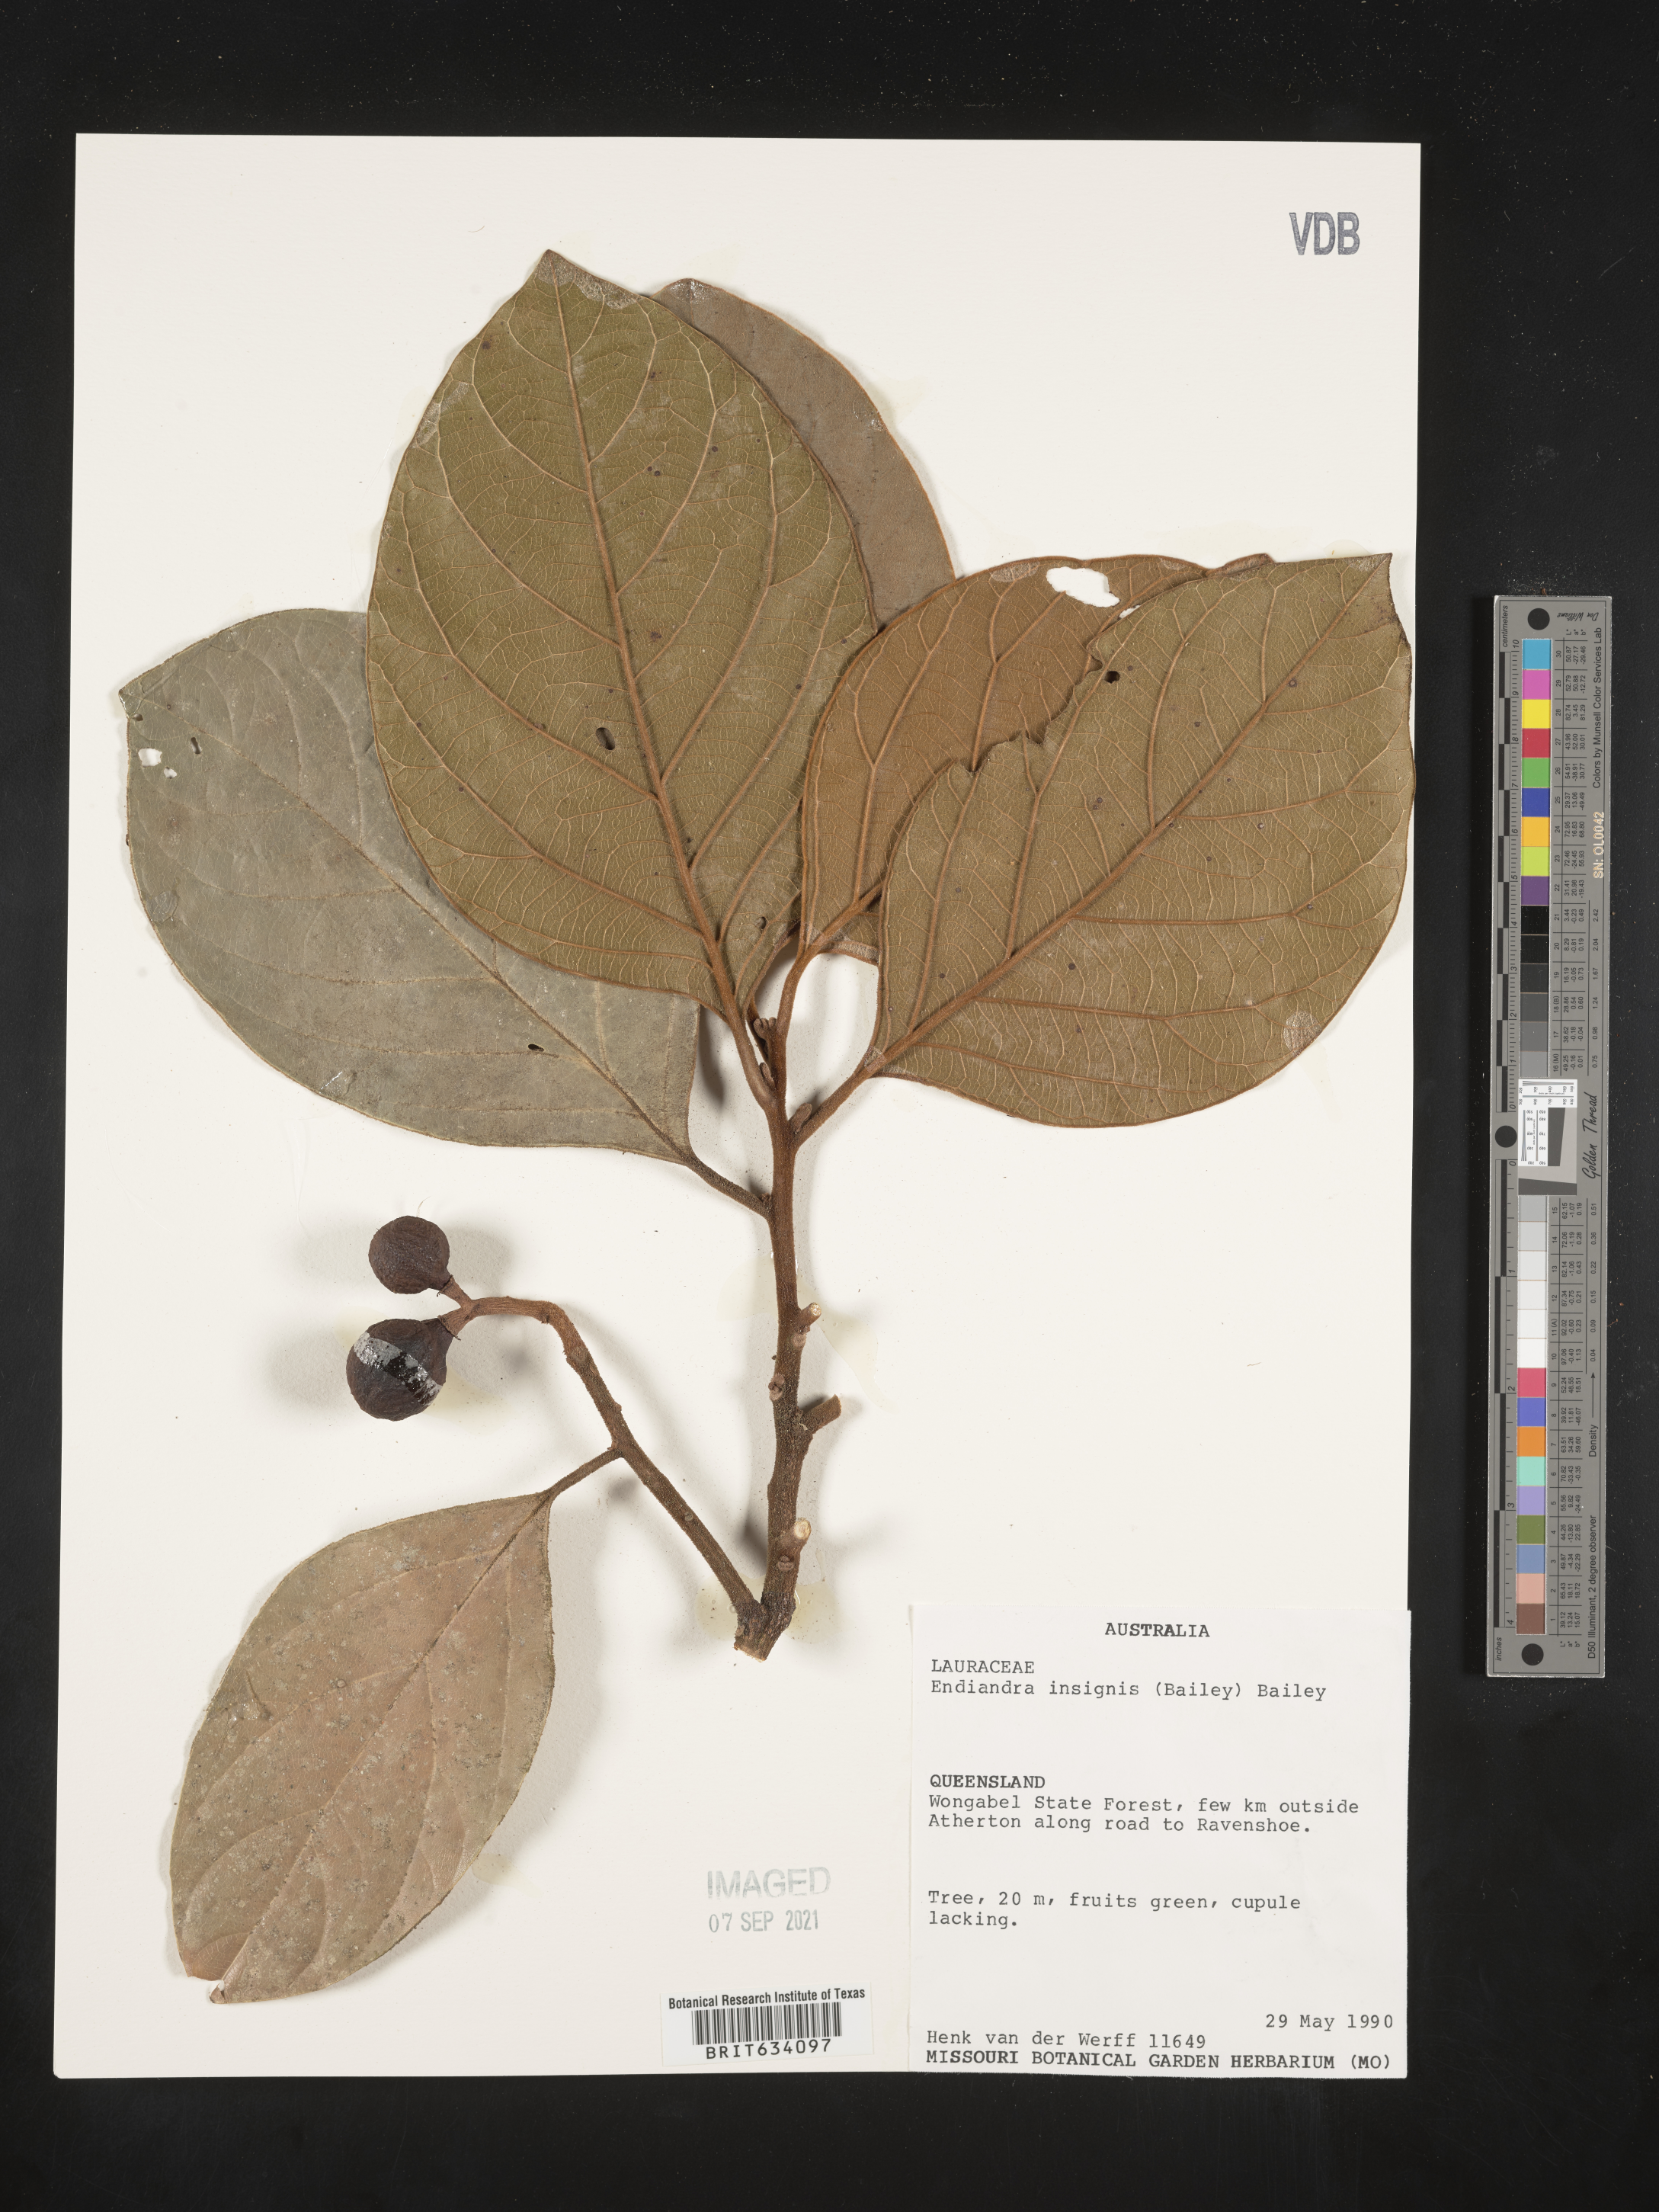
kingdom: Plantae
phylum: Tracheophyta
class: Magnoliopsida
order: Laurales
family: Lauraceae
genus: Endiandra
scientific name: Endiandra
